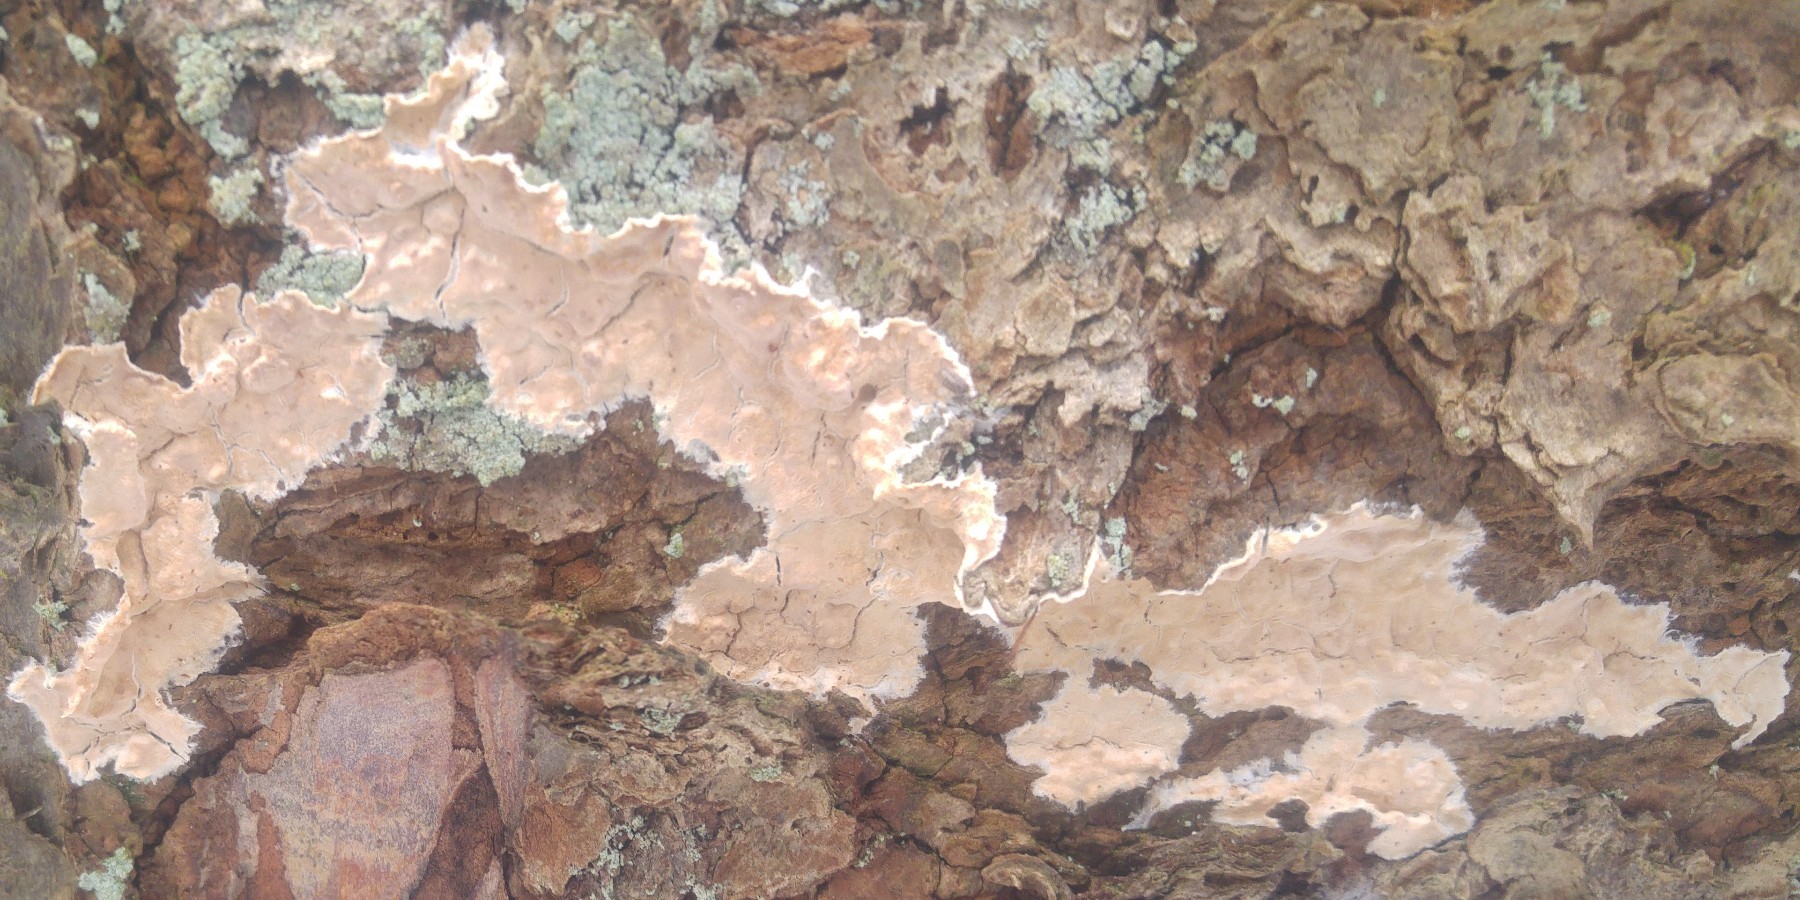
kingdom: Fungi
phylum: Basidiomycota
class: Agaricomycetes
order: Agaricales
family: Physalacriaceae
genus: Cylindrobasidium
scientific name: Cylindrobasidium evolvens
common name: sprækkehinde
